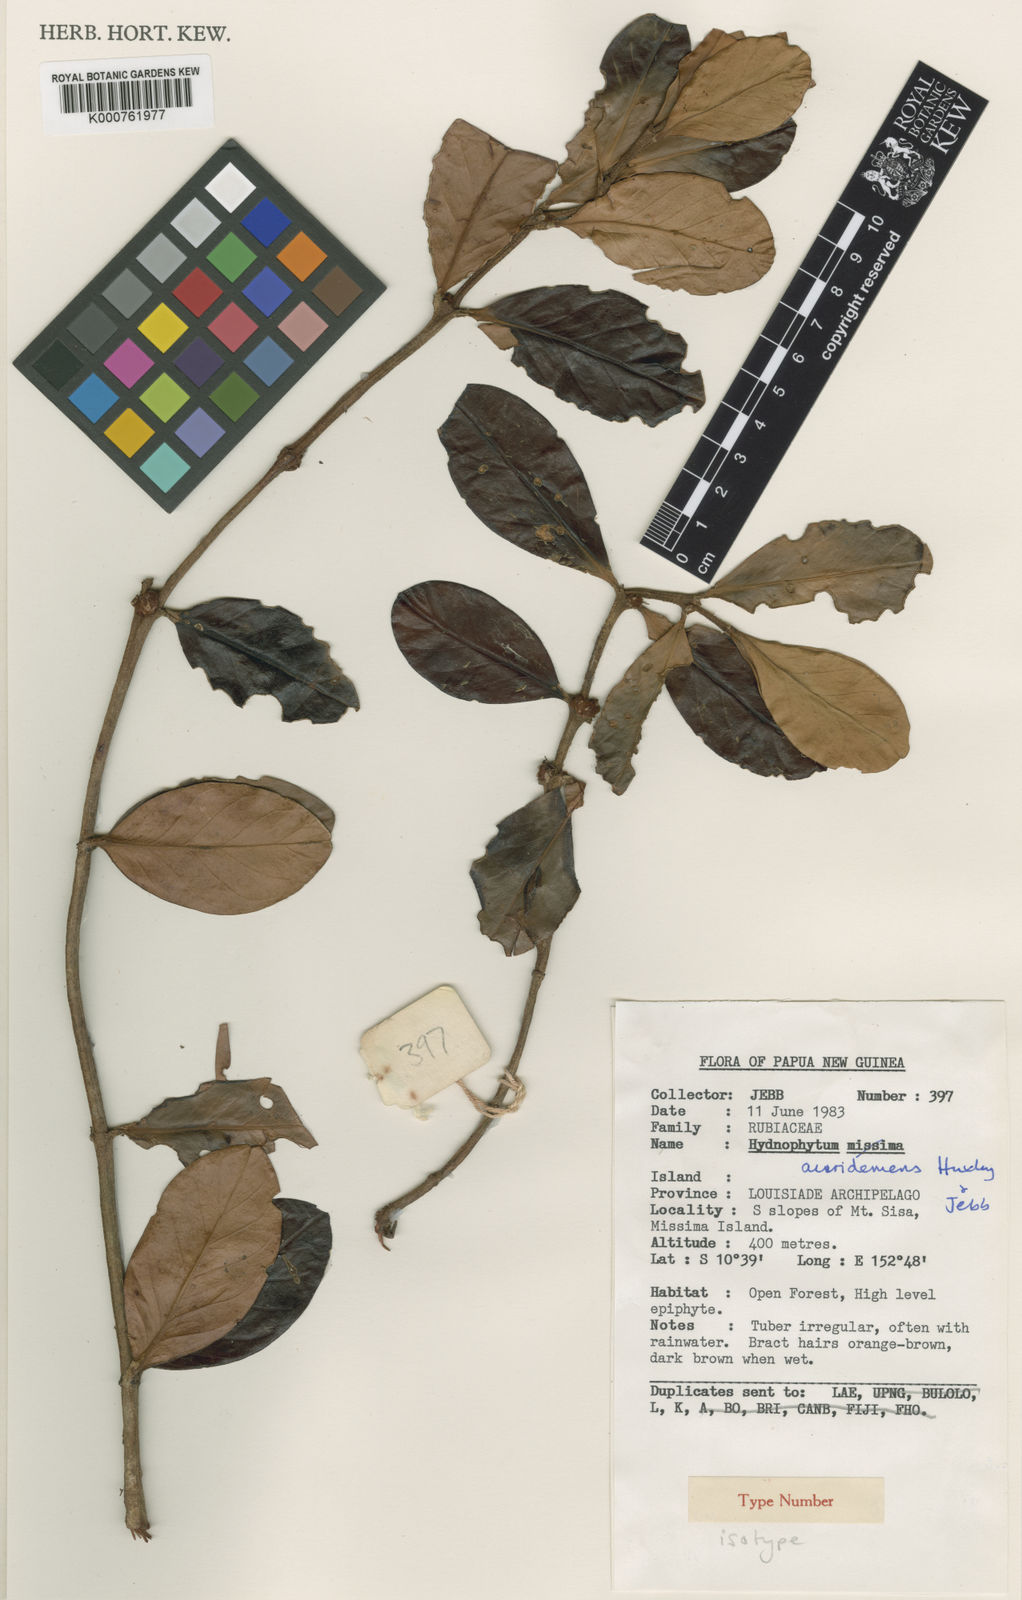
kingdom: Plantae
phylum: Tracheophyta
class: Magnoliopsida
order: Gentianales
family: Rubiaceae
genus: Hydnophytum
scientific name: Hydnophytum
